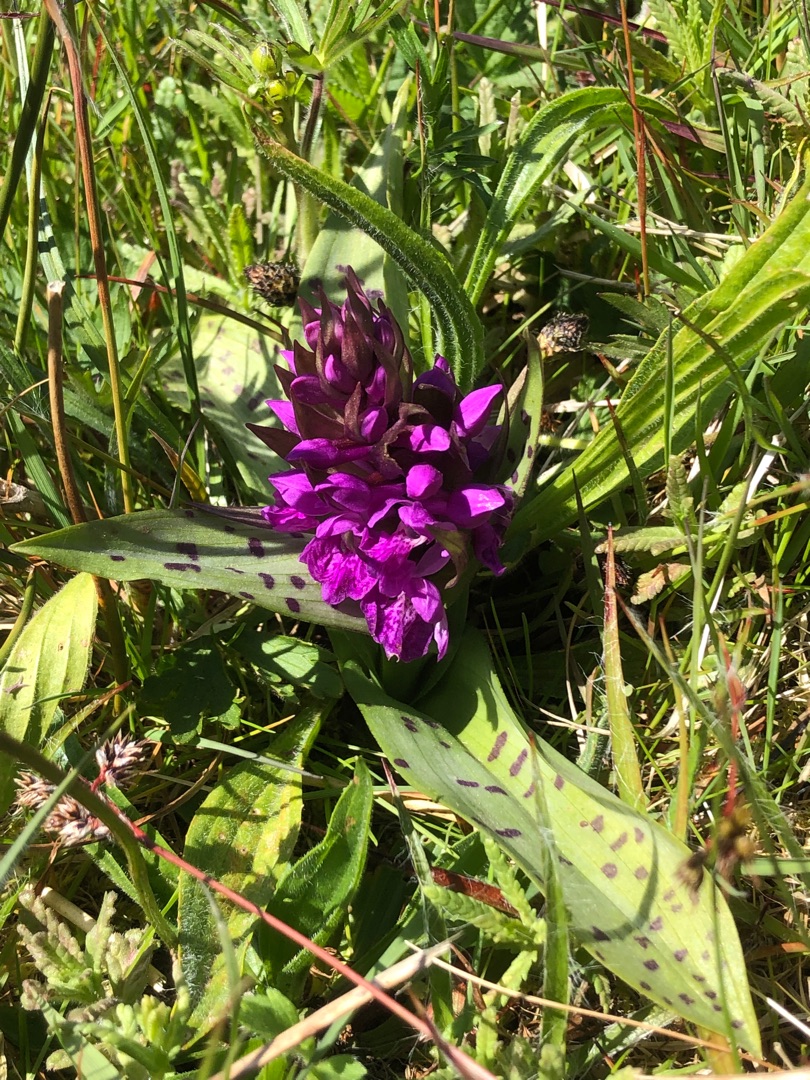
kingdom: Plantae
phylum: Tracheophyta
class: Liliopsida
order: Asparagales
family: Orchidaceae
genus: Dactylorhiza
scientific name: Dactylorhiza majalis
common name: Maj-gøgeurt
